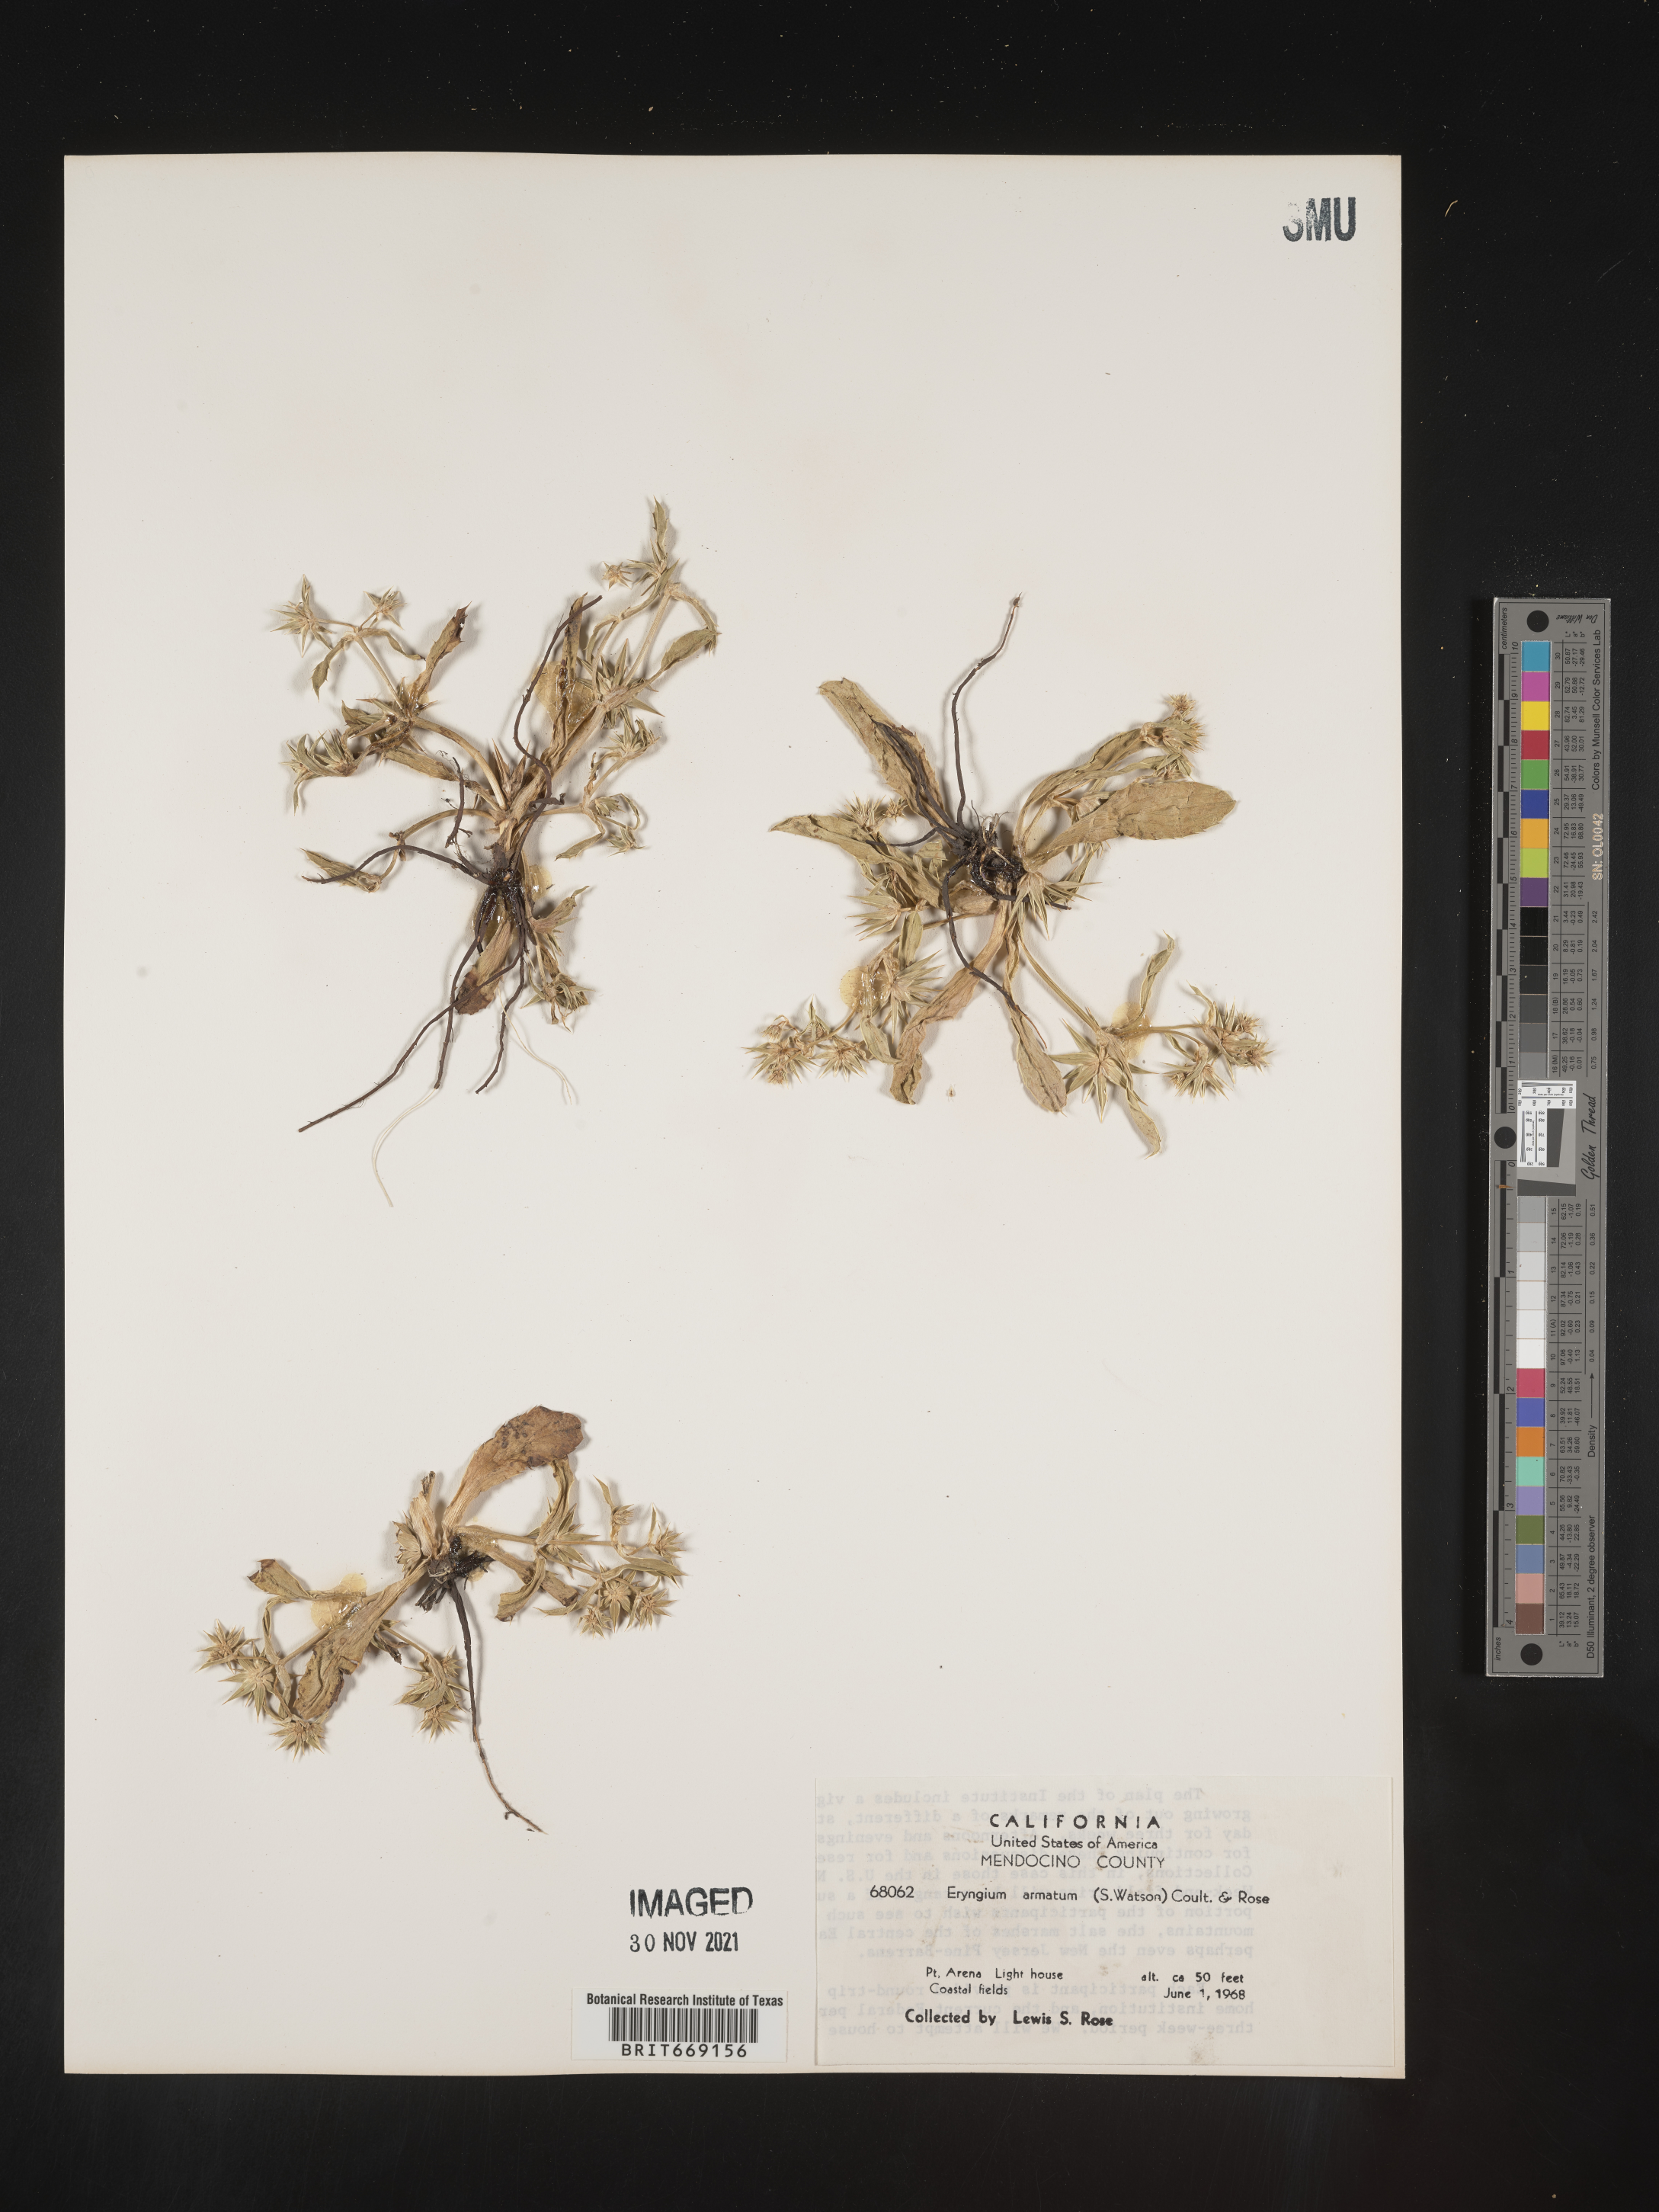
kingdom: Plantae
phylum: Tracheophyta
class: Magnoliopsida
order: Apiales
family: Apiaceae
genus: Eryngium
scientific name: Eryngium armatum
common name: Coyote thistle
